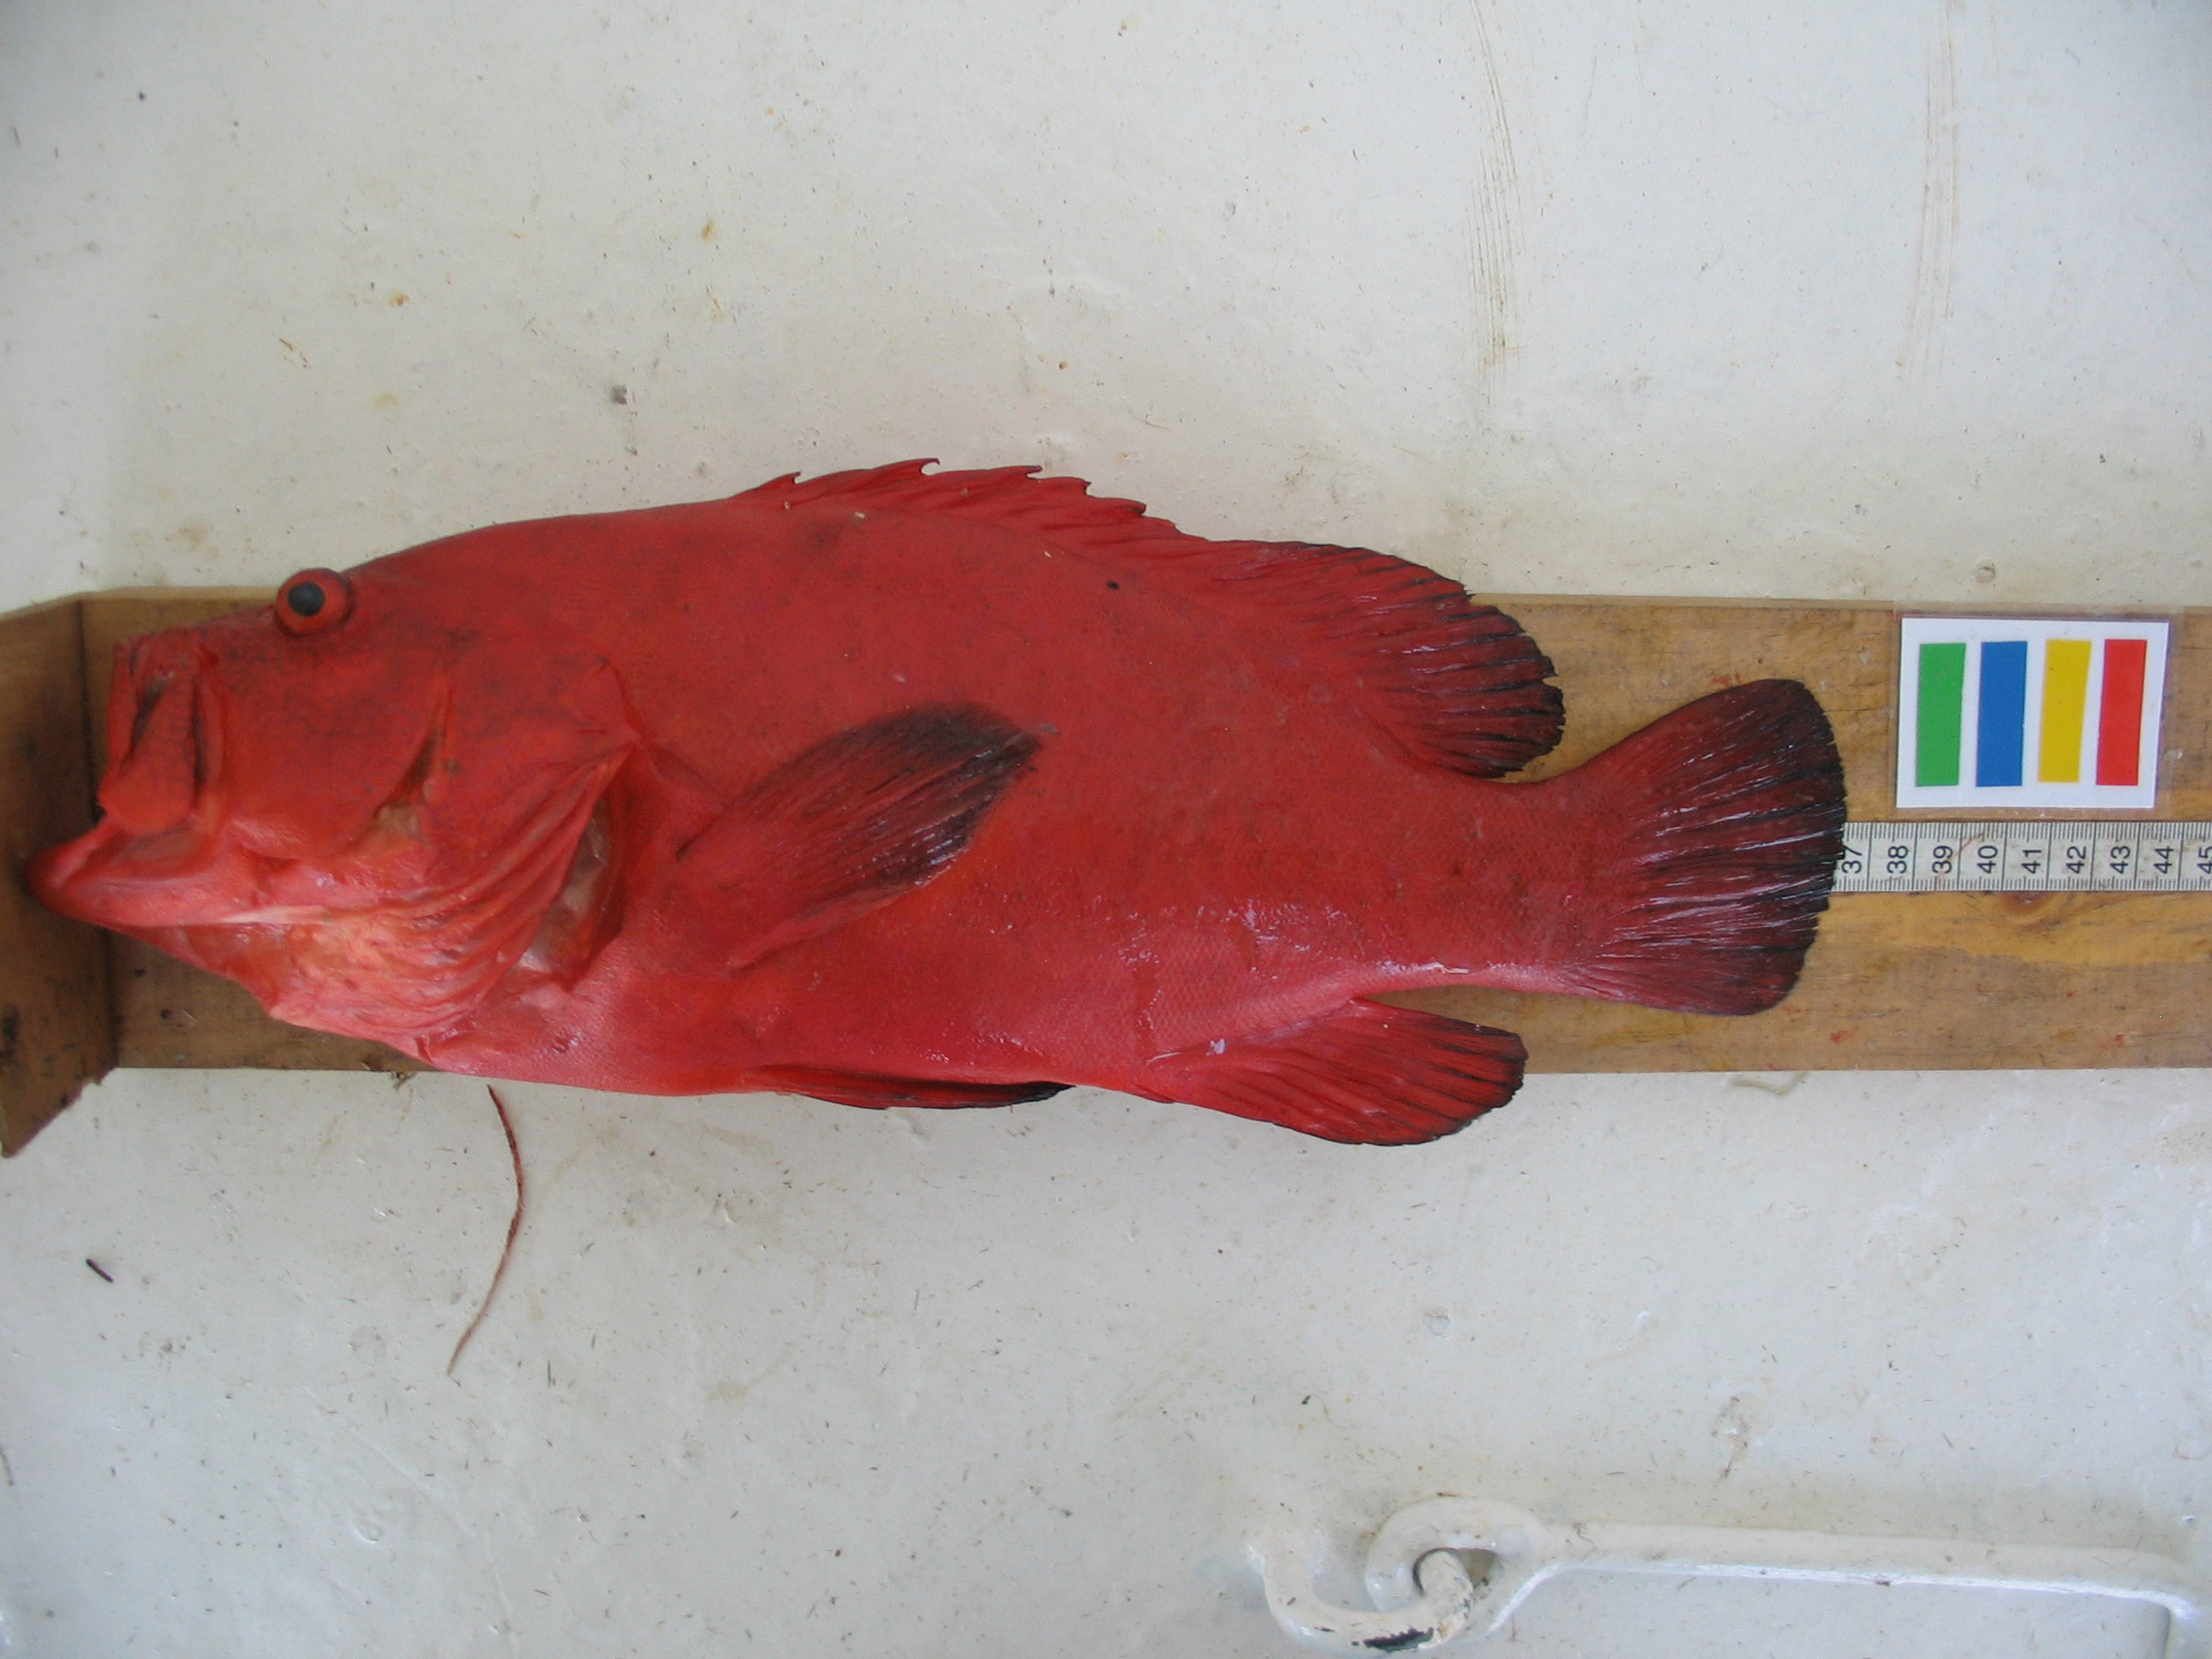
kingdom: Animalia
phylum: Chordata
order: Perciformes
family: Serranidae
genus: Cephalopholis
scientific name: Cephalopholis sonnerati
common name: Tomato hind
